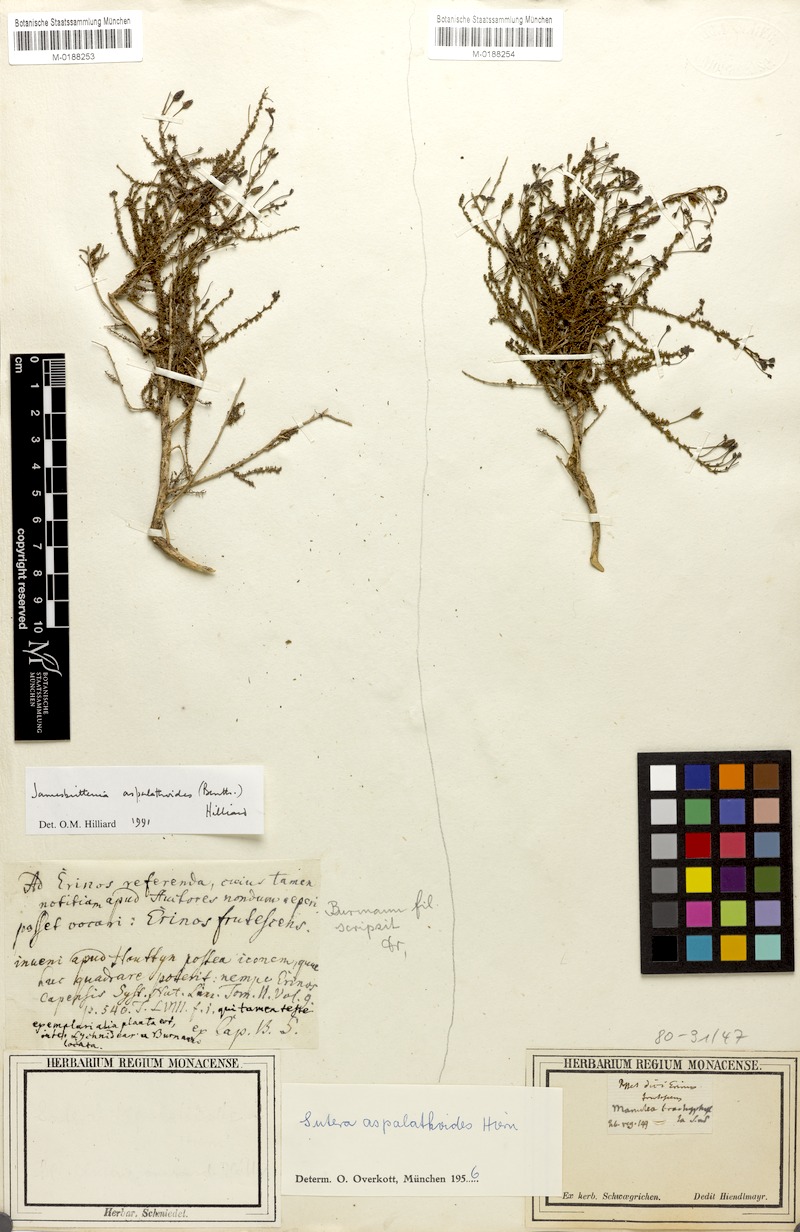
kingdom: Plantae
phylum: Tracheophyta
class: Magnoliopsida
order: Lamiales
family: Scrophulariaceae
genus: Jamesbrittenia
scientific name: Jamesbrittenia aspalathoides
